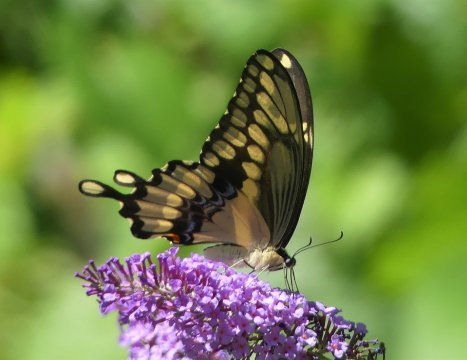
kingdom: Animalia
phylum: Arthropoda
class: Insecta
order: Lepidoptera
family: Papilionidae
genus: Papilio
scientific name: Papilio cresphontes
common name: Eastern Giant Swallowtail
